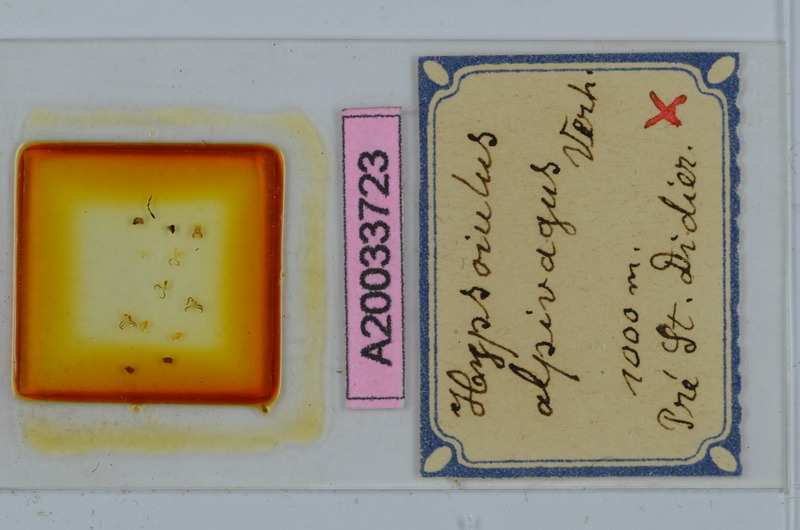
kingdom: Animalia
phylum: Arthropoda
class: Diplopoda
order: Julida
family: Julidae
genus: Hypsoiulus
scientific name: Hypsoiulus alpivagus
